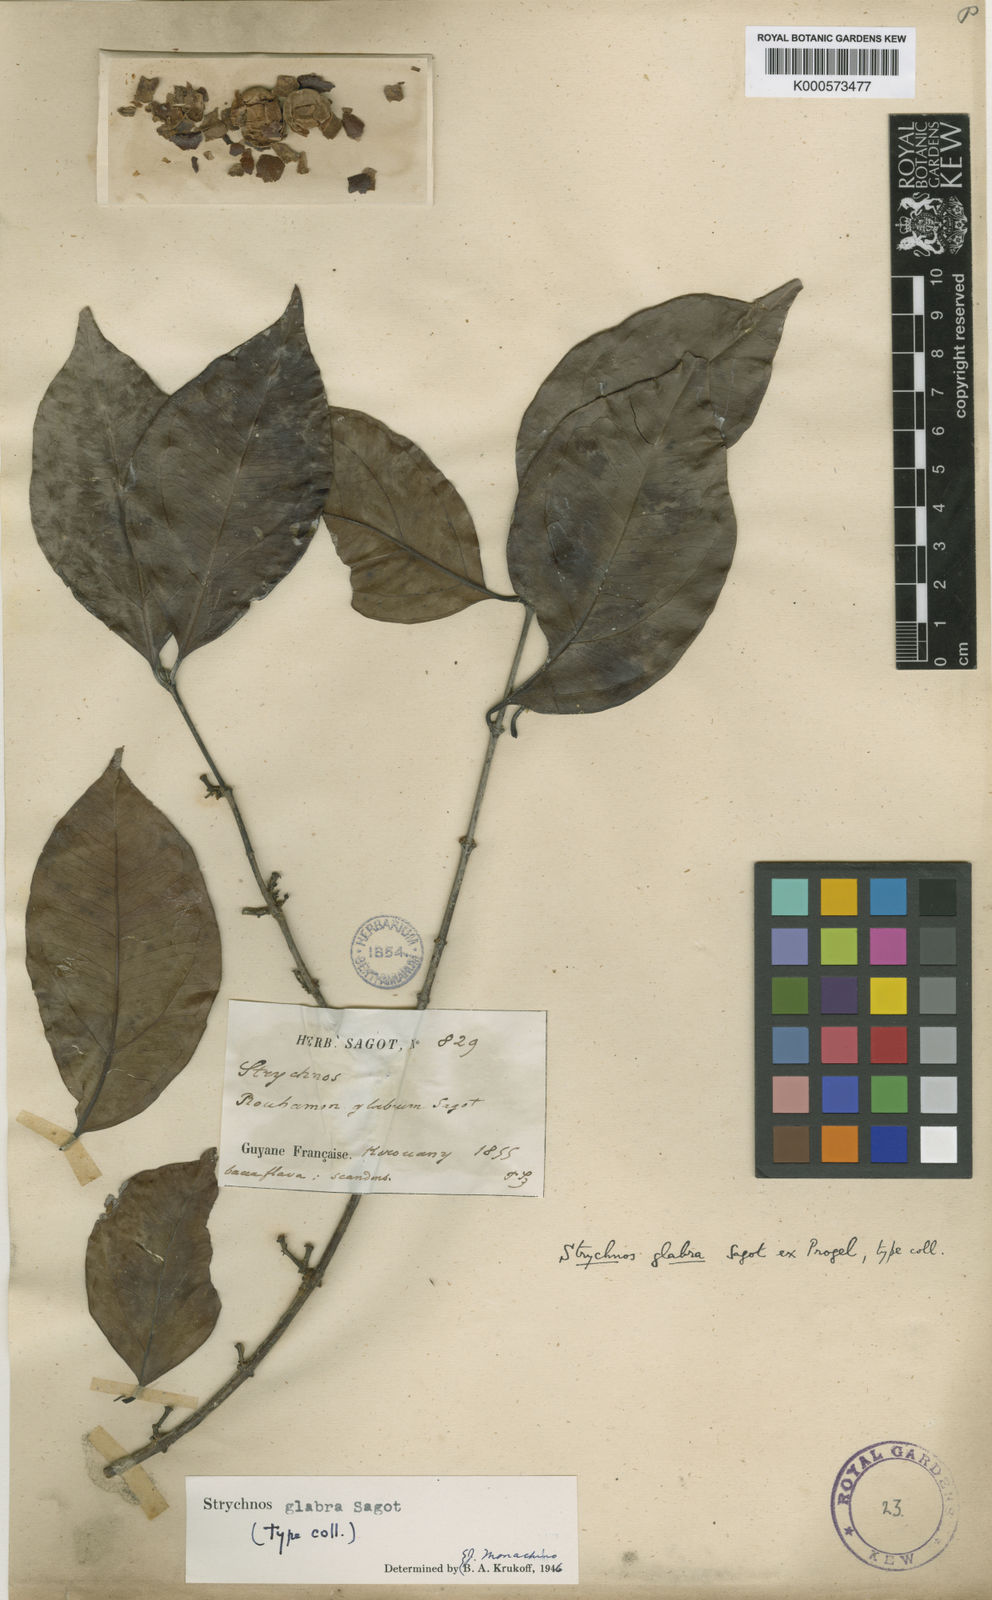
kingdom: Plantae
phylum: Tracheophyta
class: Magnoliopsida
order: Gentianales
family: Loganiaceae
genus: Strychnos
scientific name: Strychnos glabra
